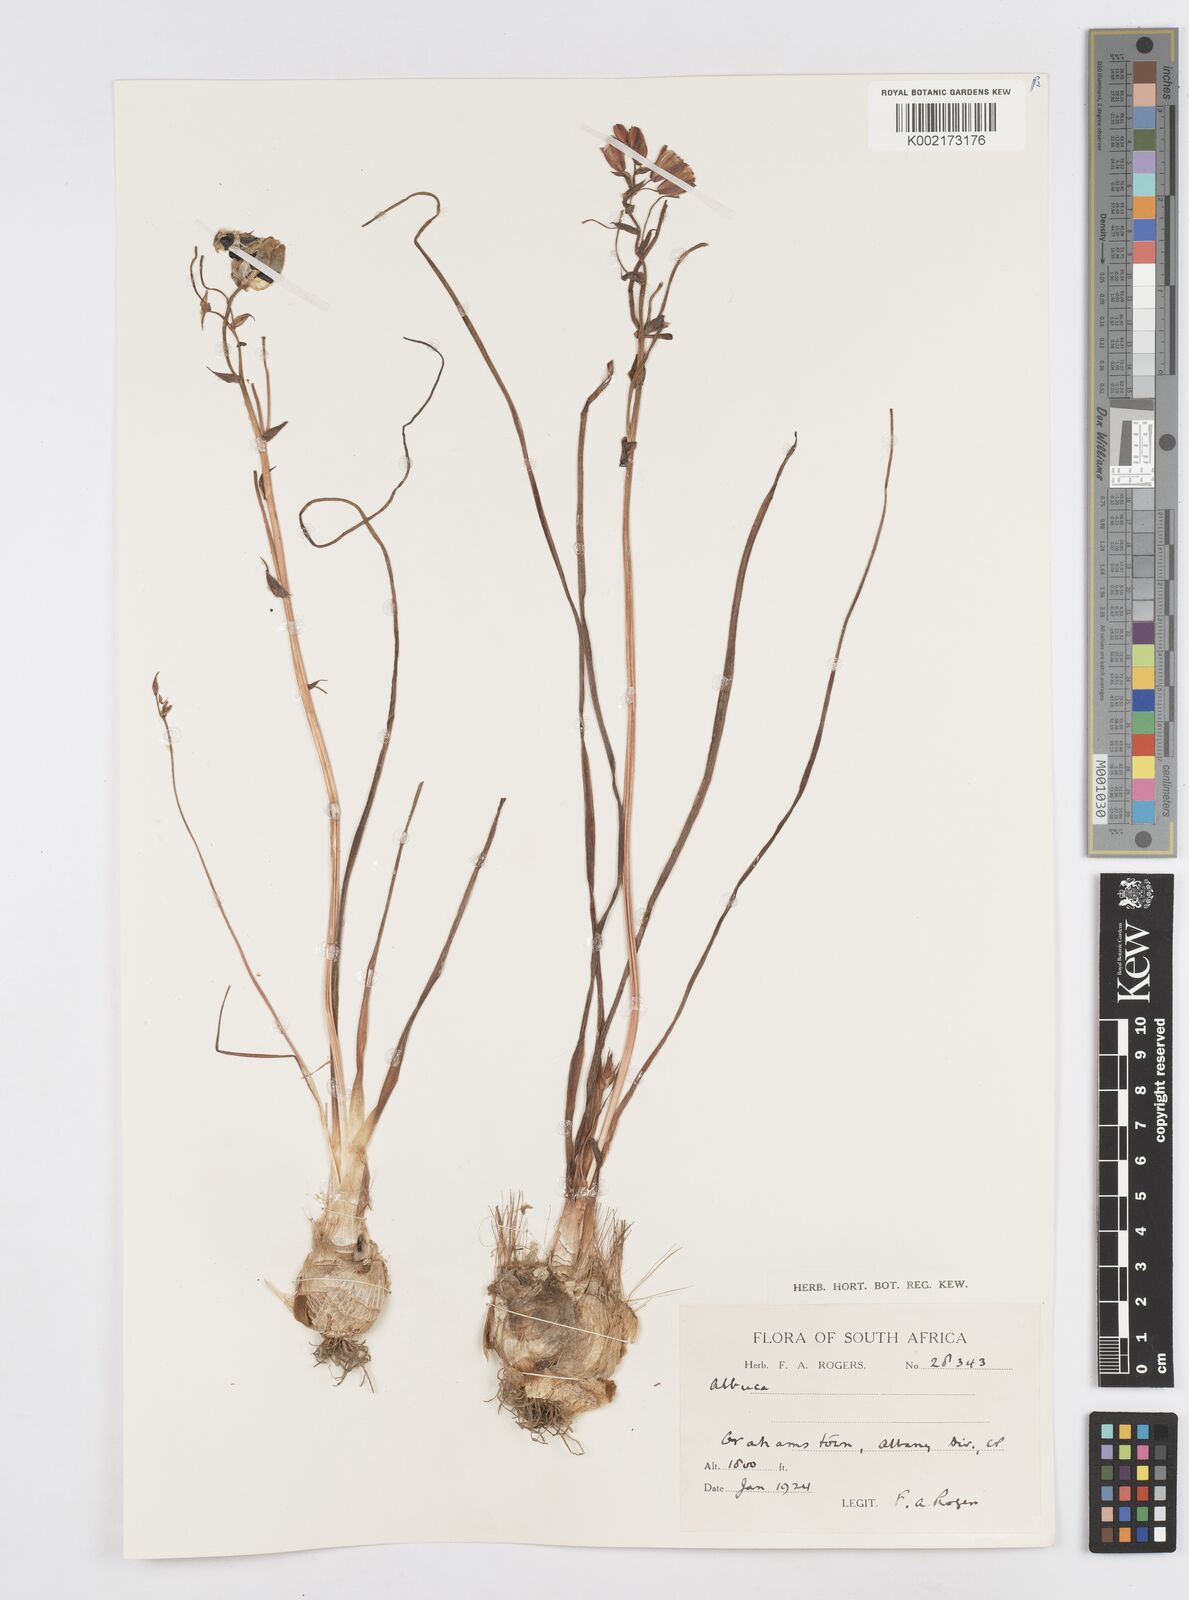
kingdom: Plantae
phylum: Tracheophyta
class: Liliopsida
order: Asparagales
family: Asparagaceae
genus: Albuca
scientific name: Albuca
